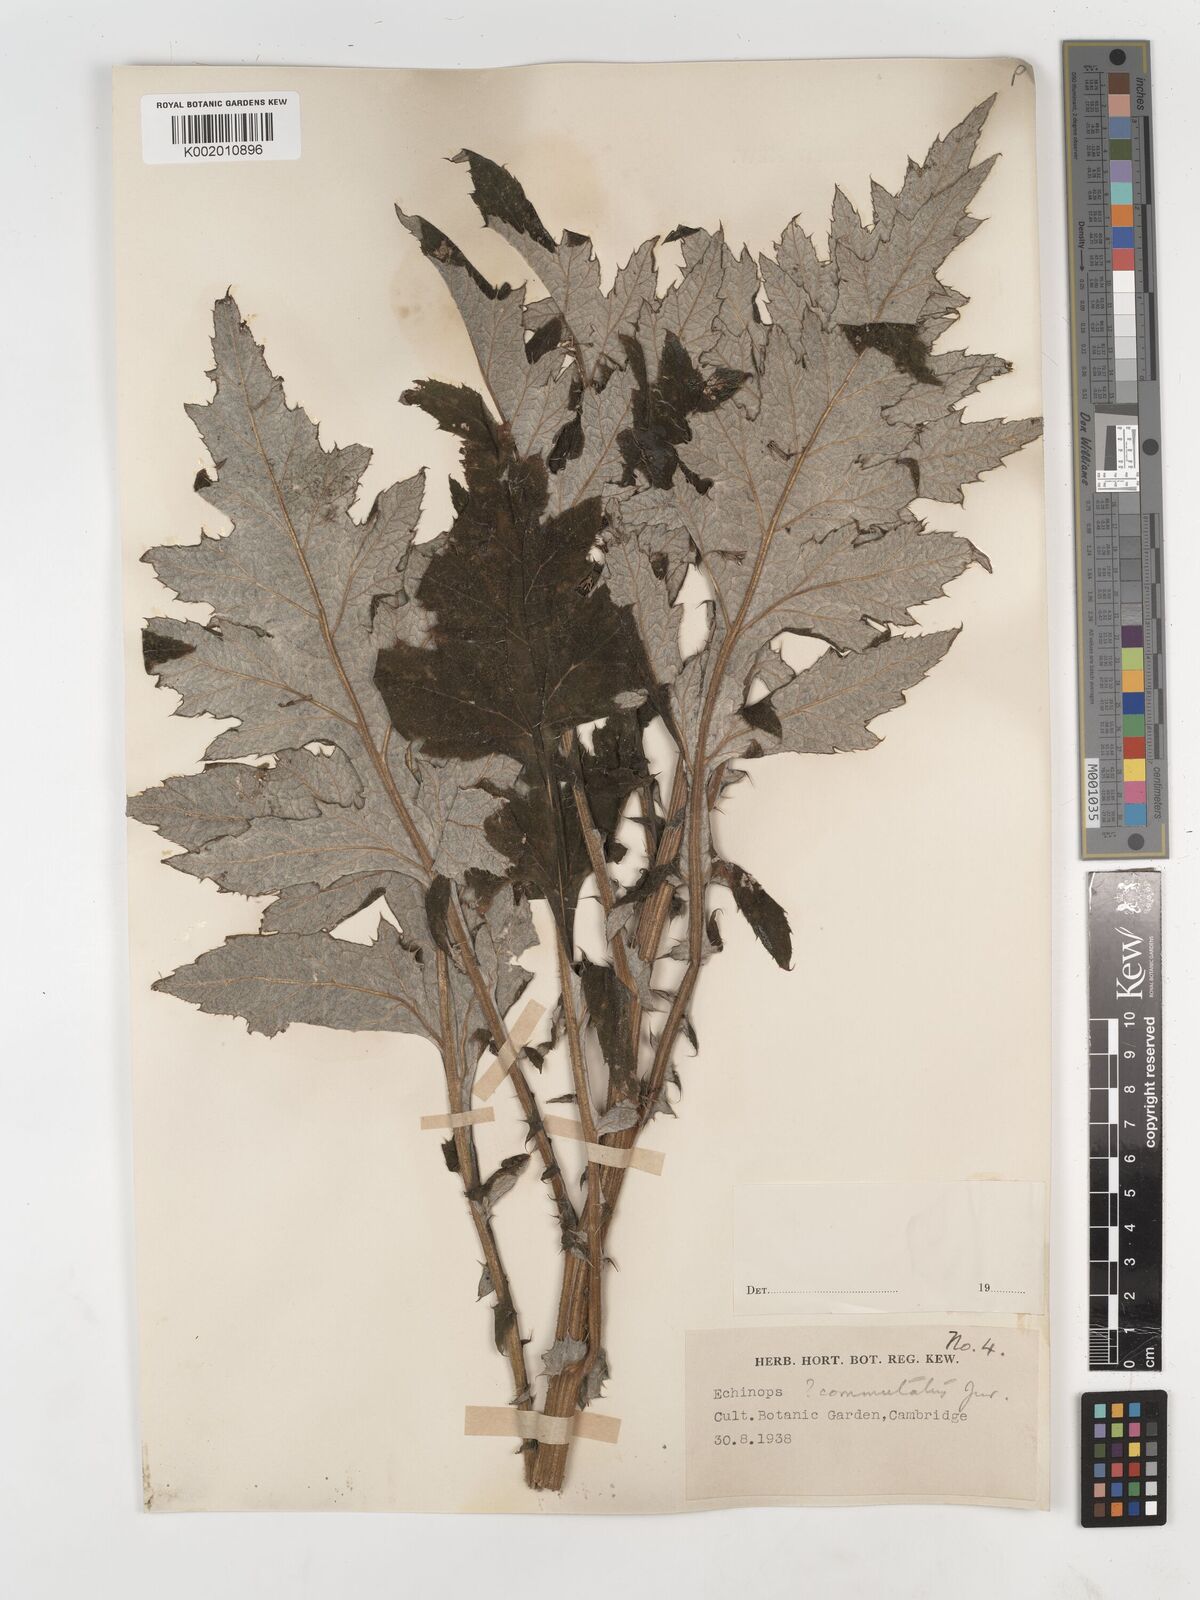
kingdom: Plantae
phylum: Tracheophyta
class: Magnoliopsida
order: Asterales
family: Asteraceae
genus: Echinops
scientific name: Echinops
